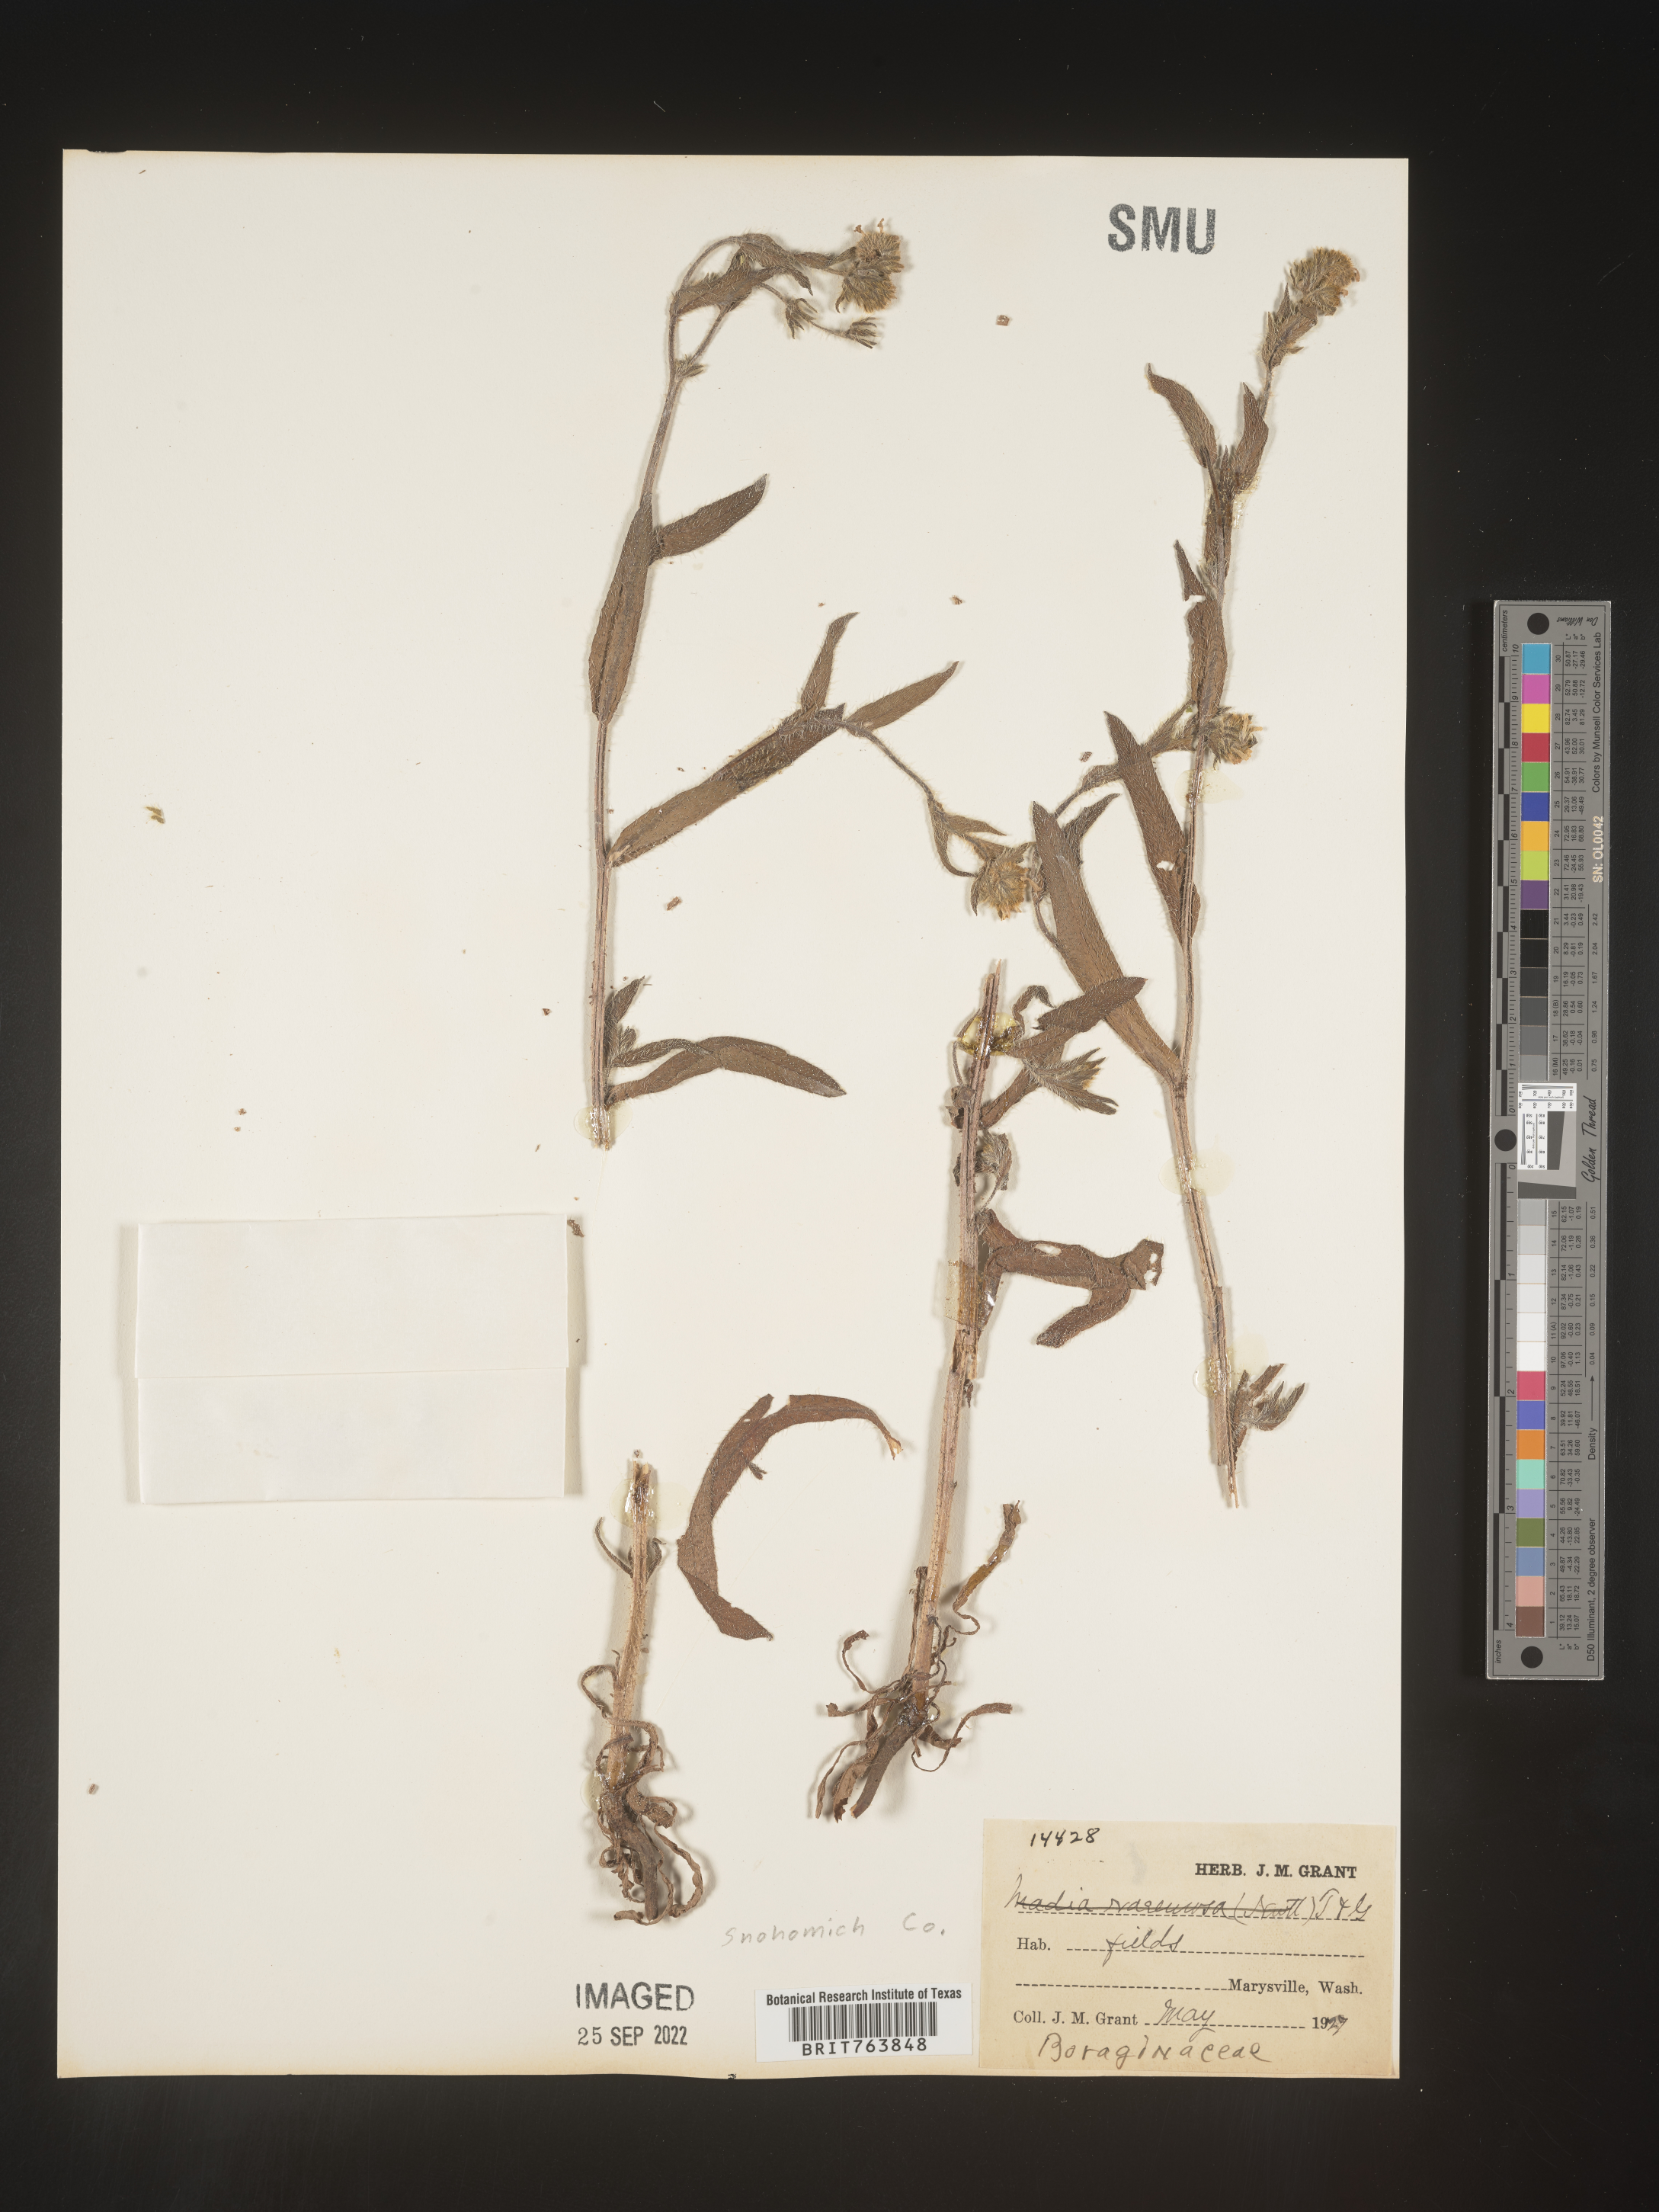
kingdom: Plantae
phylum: Tracheophyta
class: Magnoliopsida
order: Boraginales
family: Boraginaceae
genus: Amsinckia
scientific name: Amsinckia
